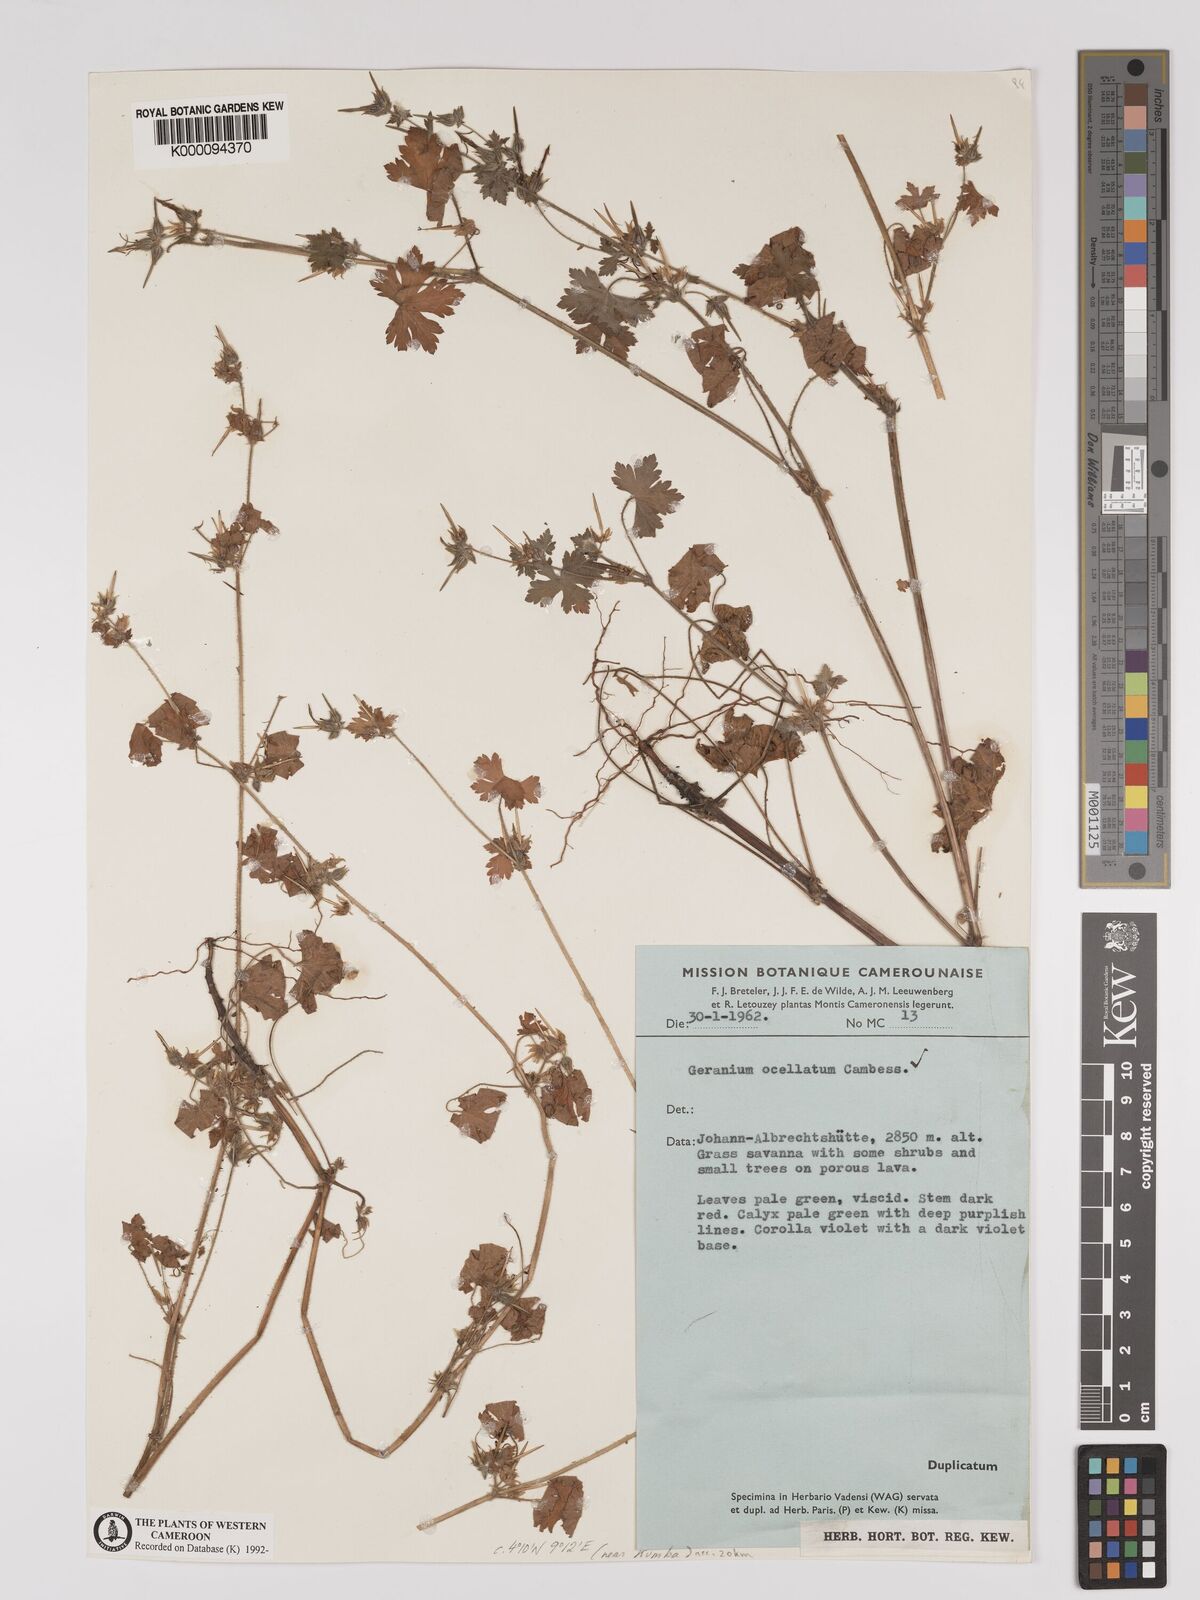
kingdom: Plantae
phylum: Tracheophyta
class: Magnoliopsida
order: Geraniales
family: Geraniaceae
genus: Geranium
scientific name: Geranium mascatense
